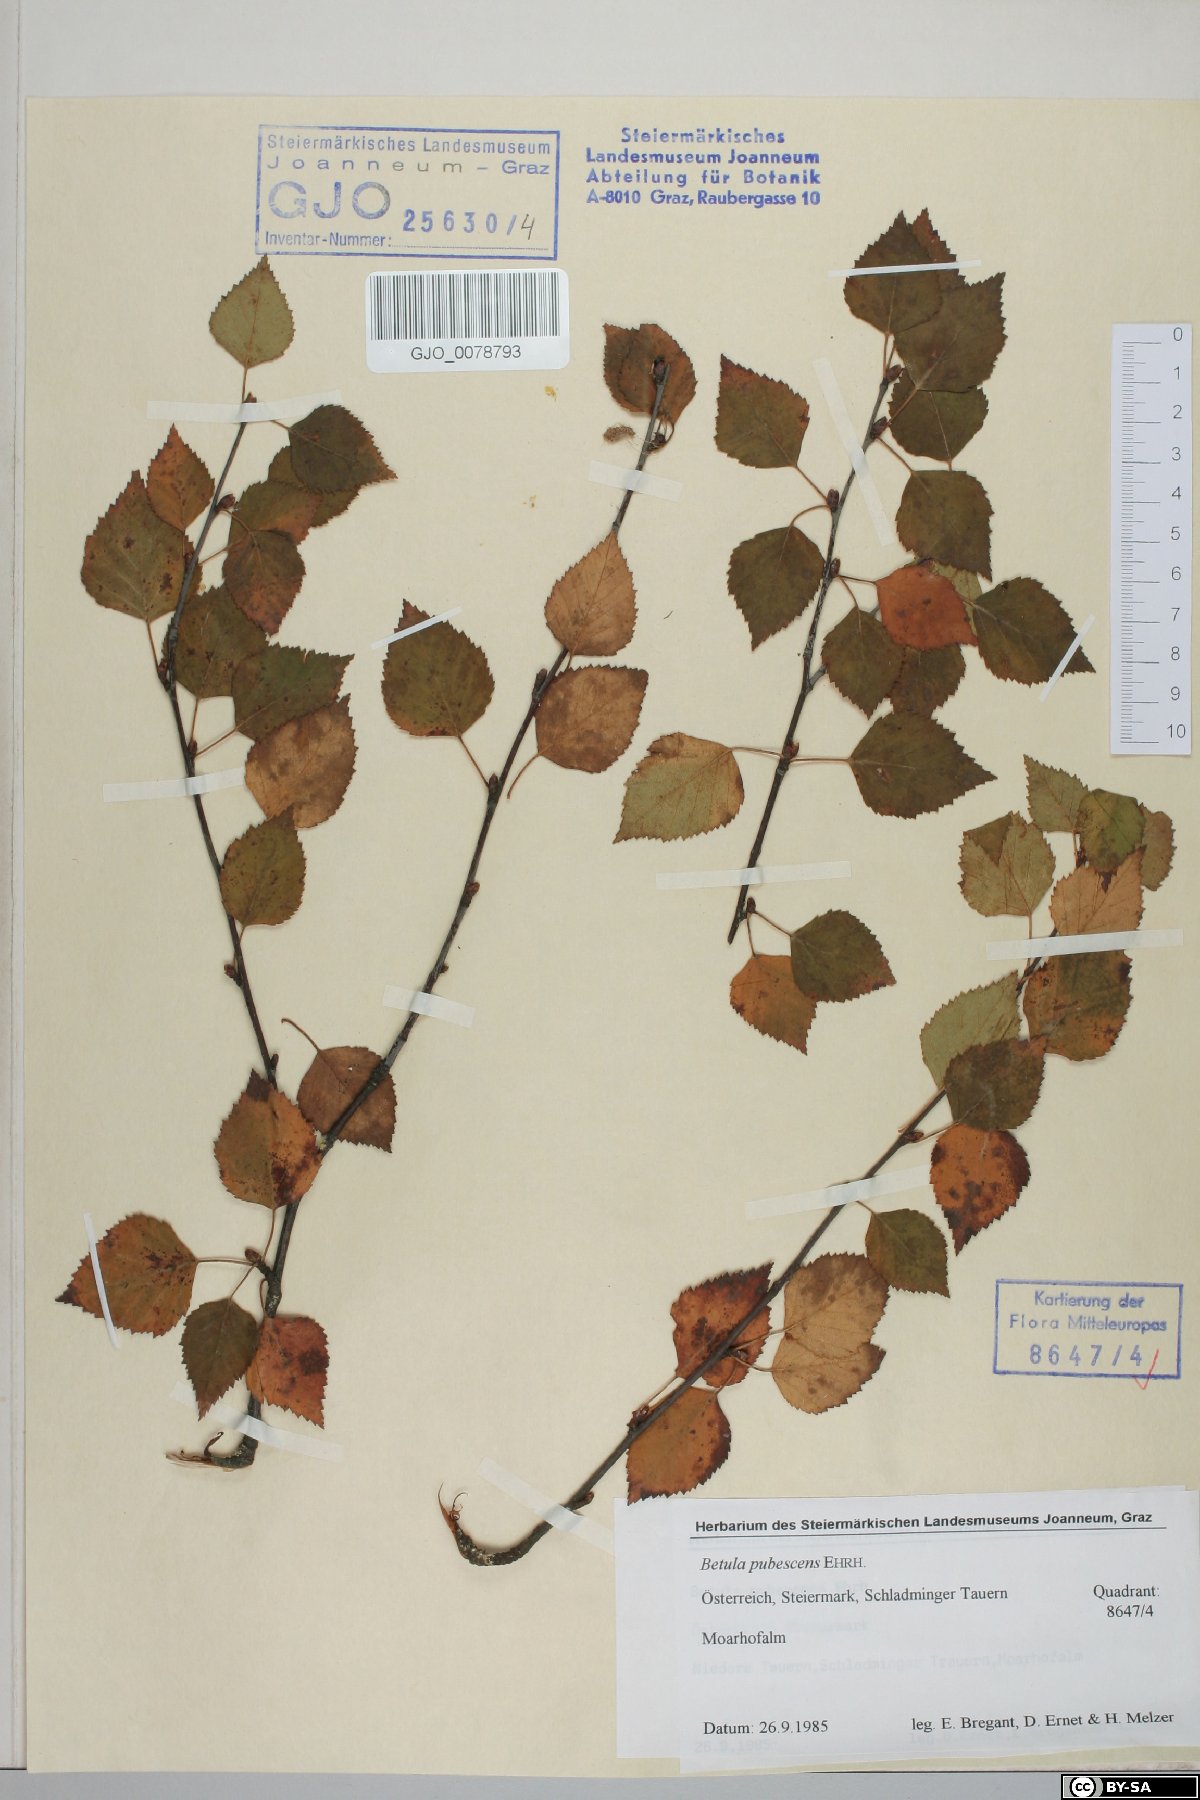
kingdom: Plantae
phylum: Tracheophyta
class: Magnoliopsida
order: Fagales
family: Betulaceae
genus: Betula
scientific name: Betula pubescens
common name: Downy birch
